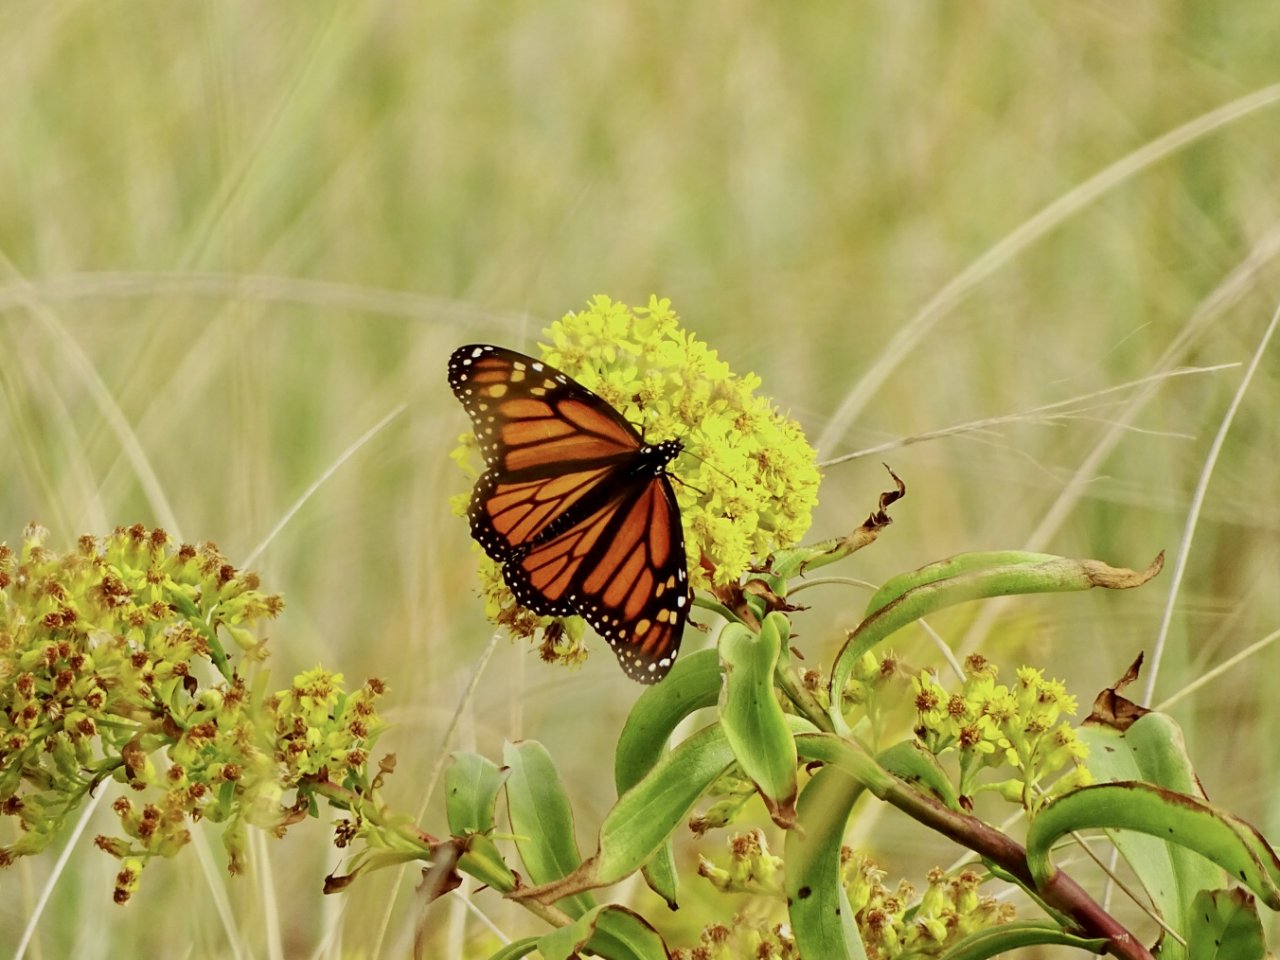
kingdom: Animalia
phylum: Arthropoda
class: Insecta
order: Lepidoptera
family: Nymphalidae
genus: Danaus
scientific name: Danaus plexippus
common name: Monarch
